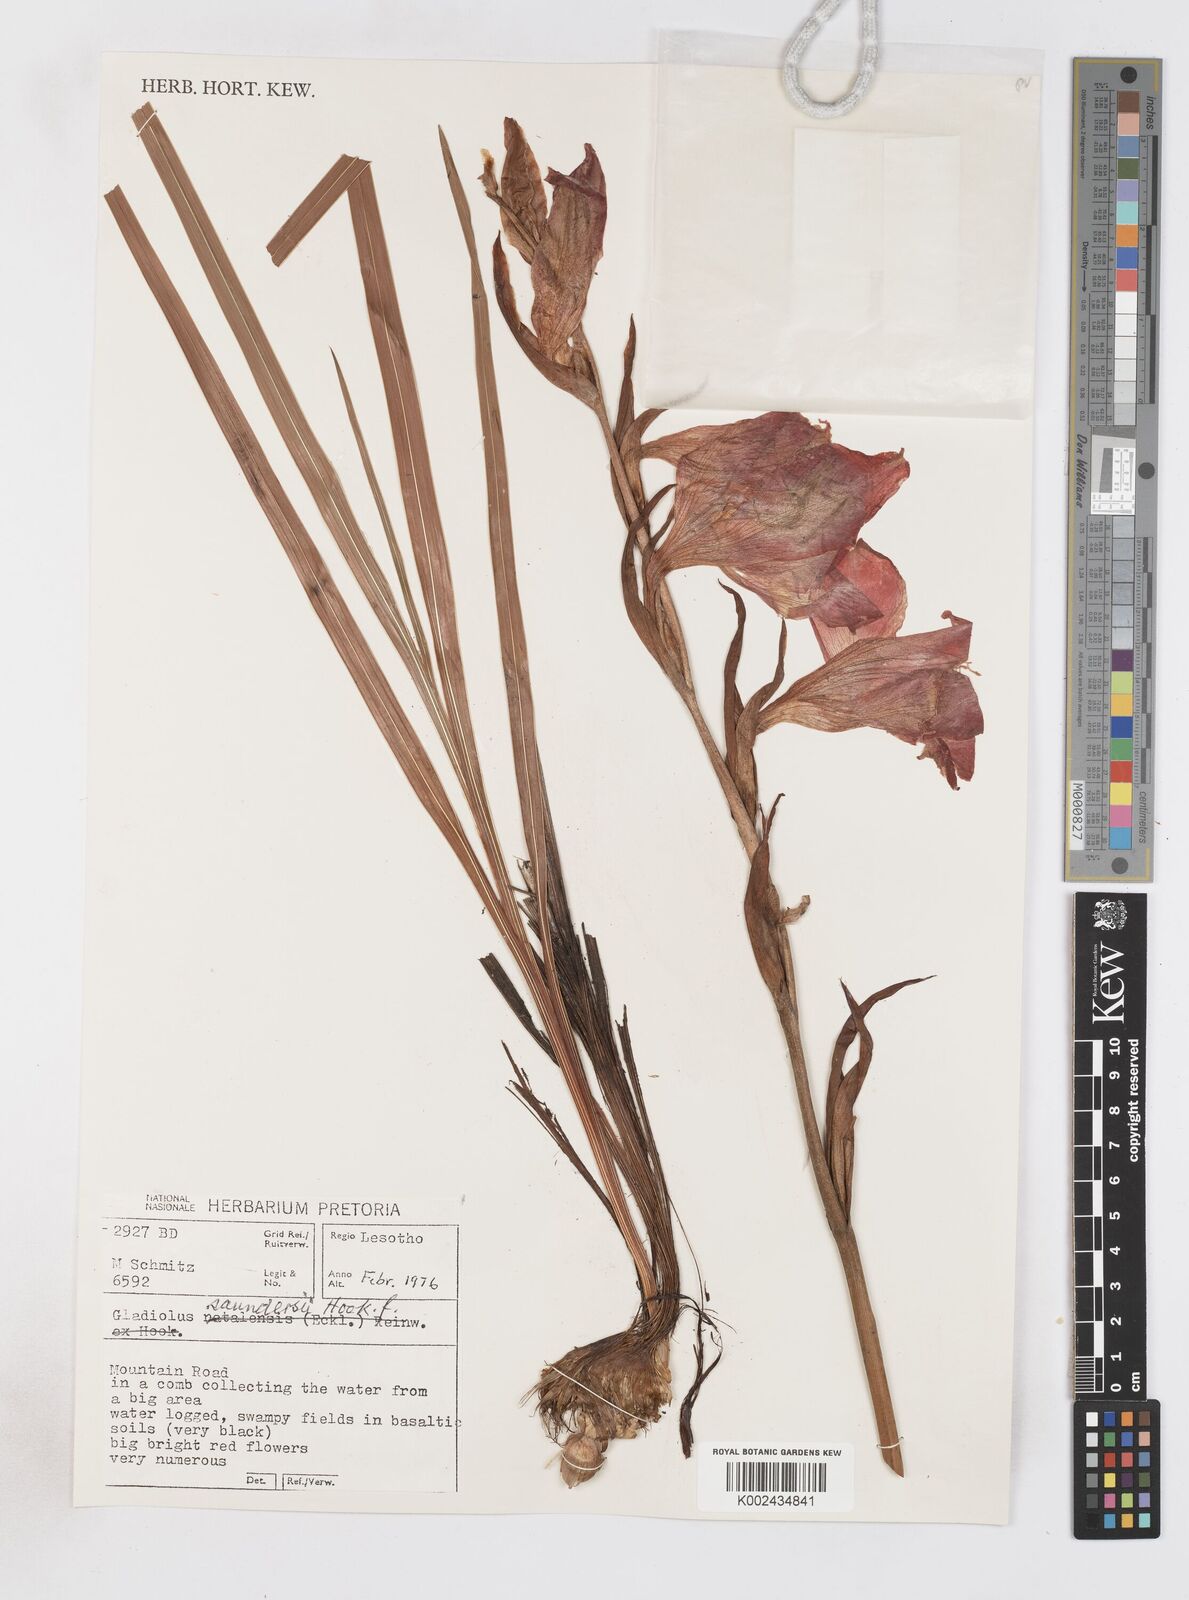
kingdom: Plantae
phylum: Tracheophyta
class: Liliopsida
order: Asparagales
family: Iridaceae
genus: Gladiolus
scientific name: Gladiolus saundersii
